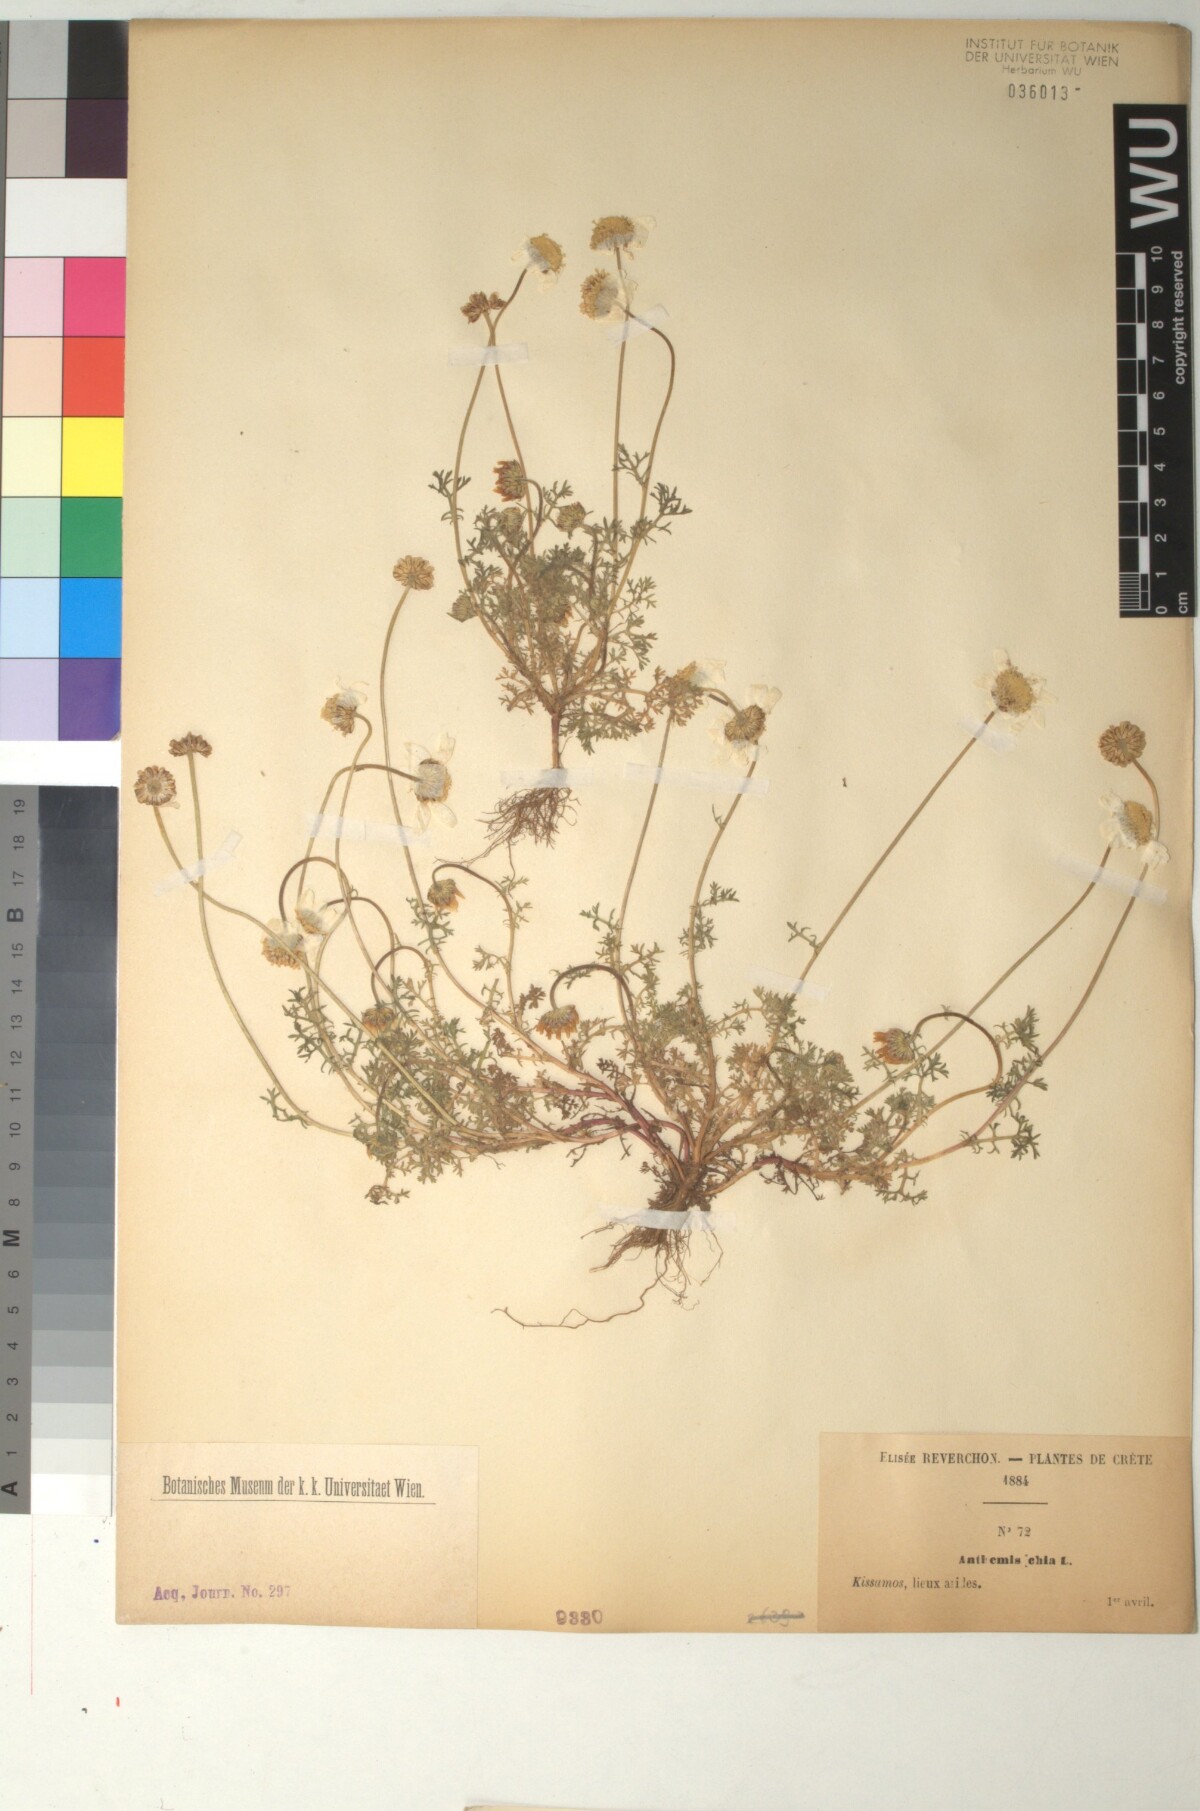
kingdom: Plantae
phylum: Tracheophyta
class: Magnoliopsida
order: Asterales
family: Asteraceae
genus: Anthemis
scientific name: Anthemis chia
